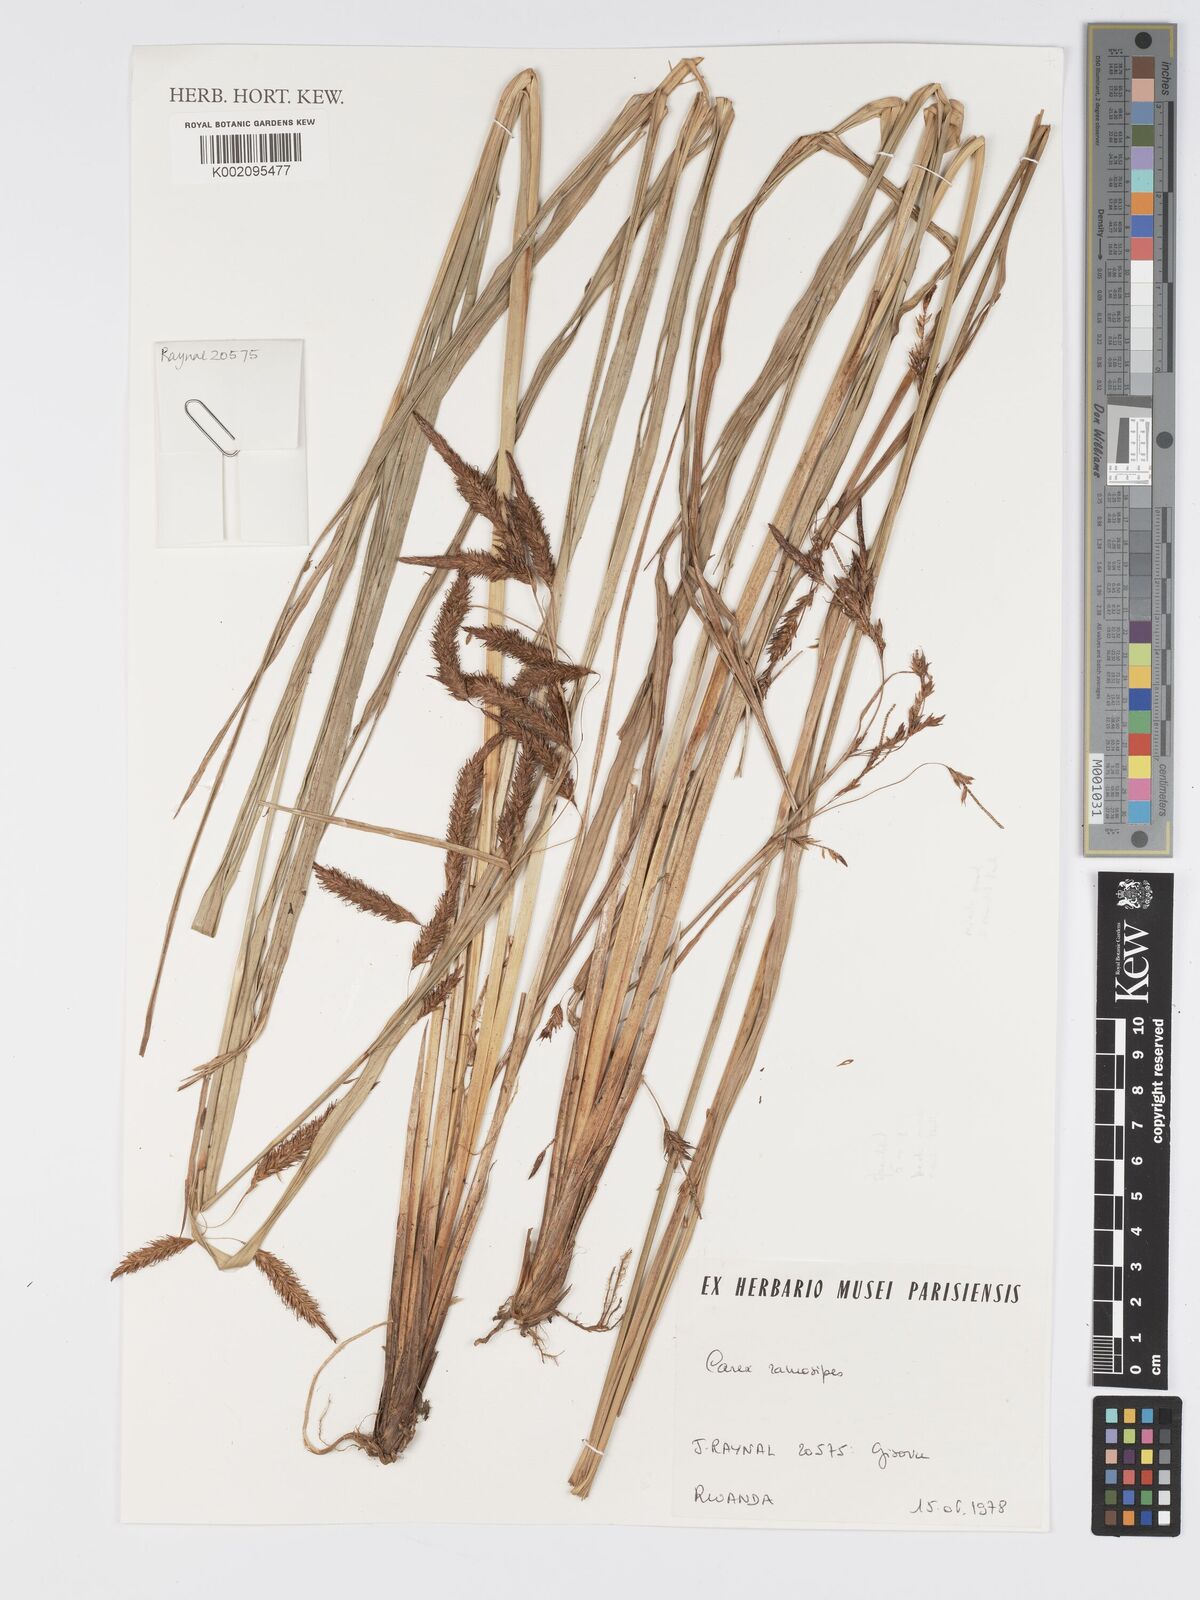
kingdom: Plantae
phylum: Tracheophyta
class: Liliopsida
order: Poales
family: Cyperaceae
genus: Carex
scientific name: Carex mildbraediana
